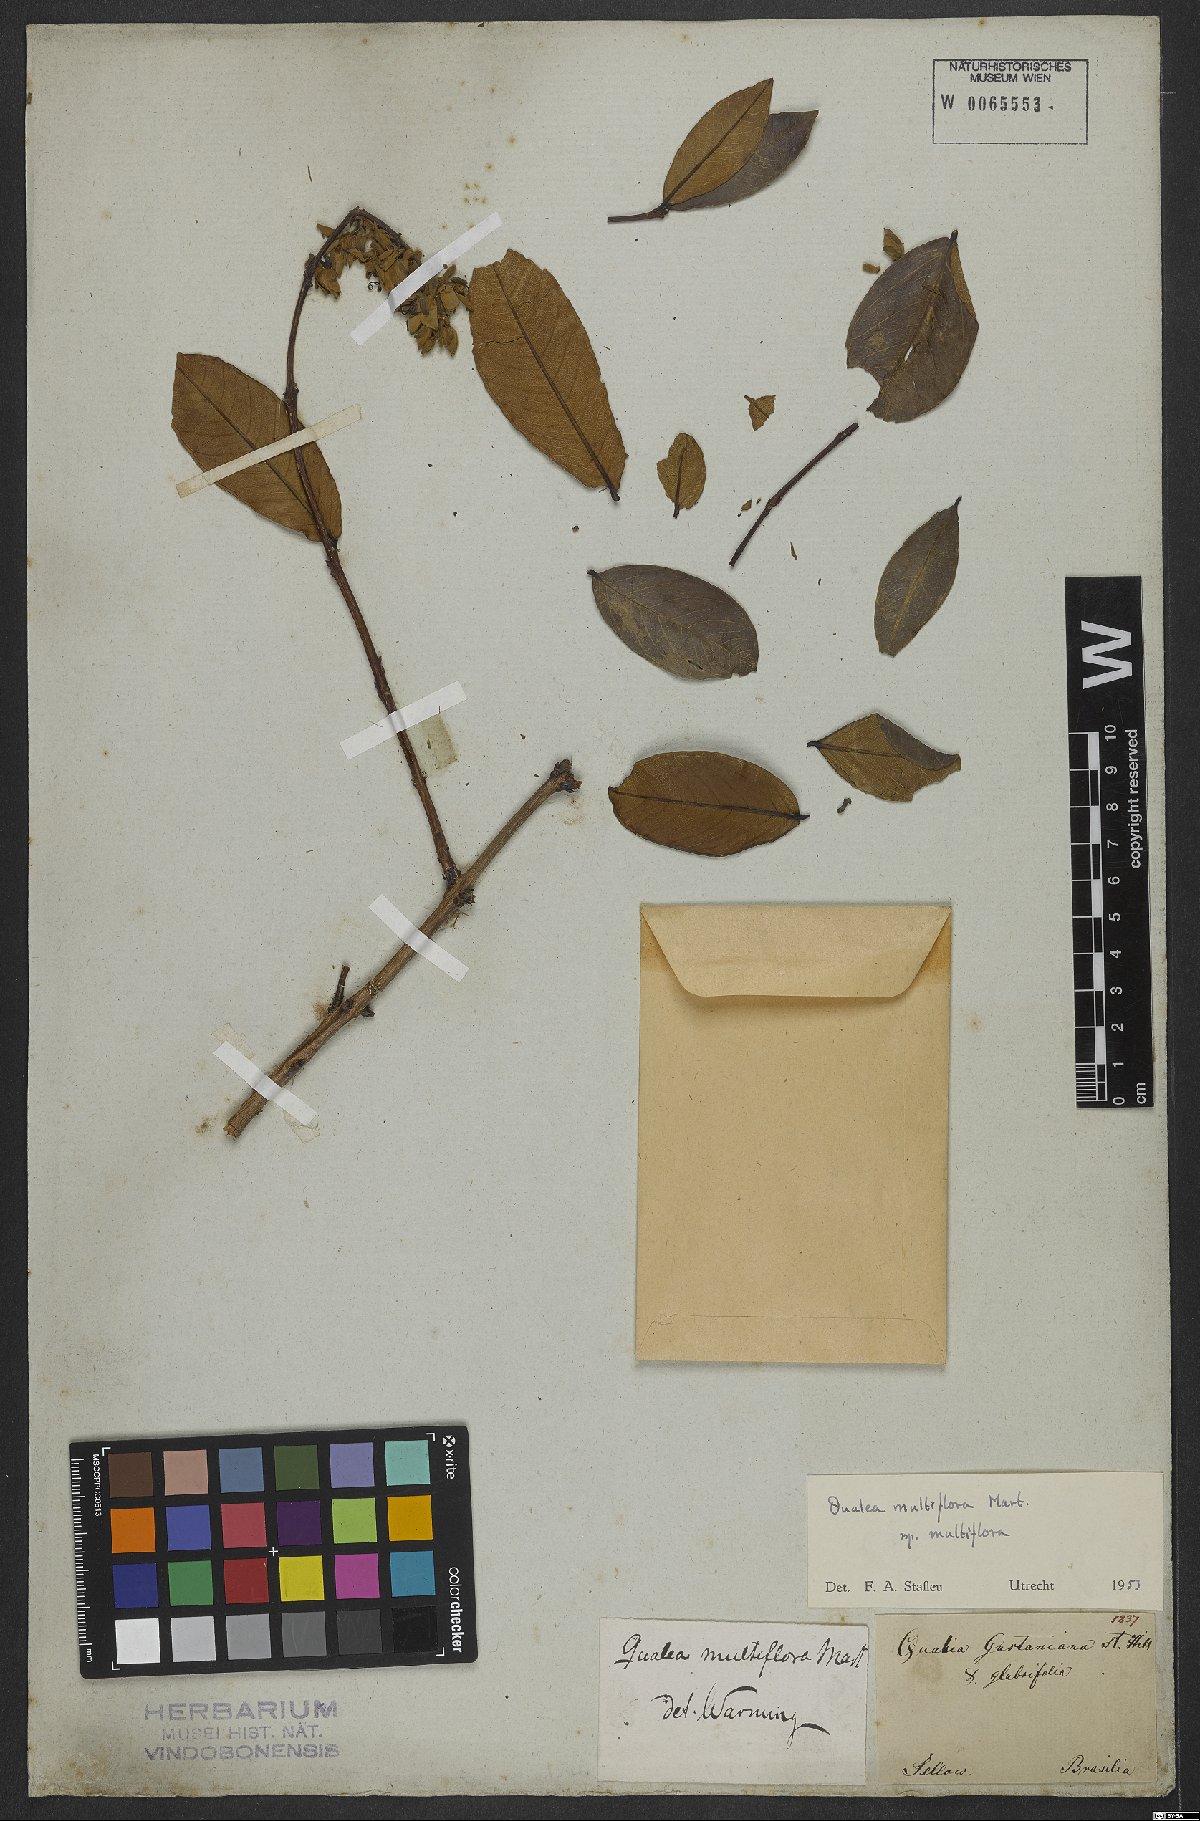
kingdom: Plantae
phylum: Tracheophyta
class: Magnoliopsida
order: Myrtales
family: Vochysiaceae
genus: Qualea
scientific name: Qualea multiflora
